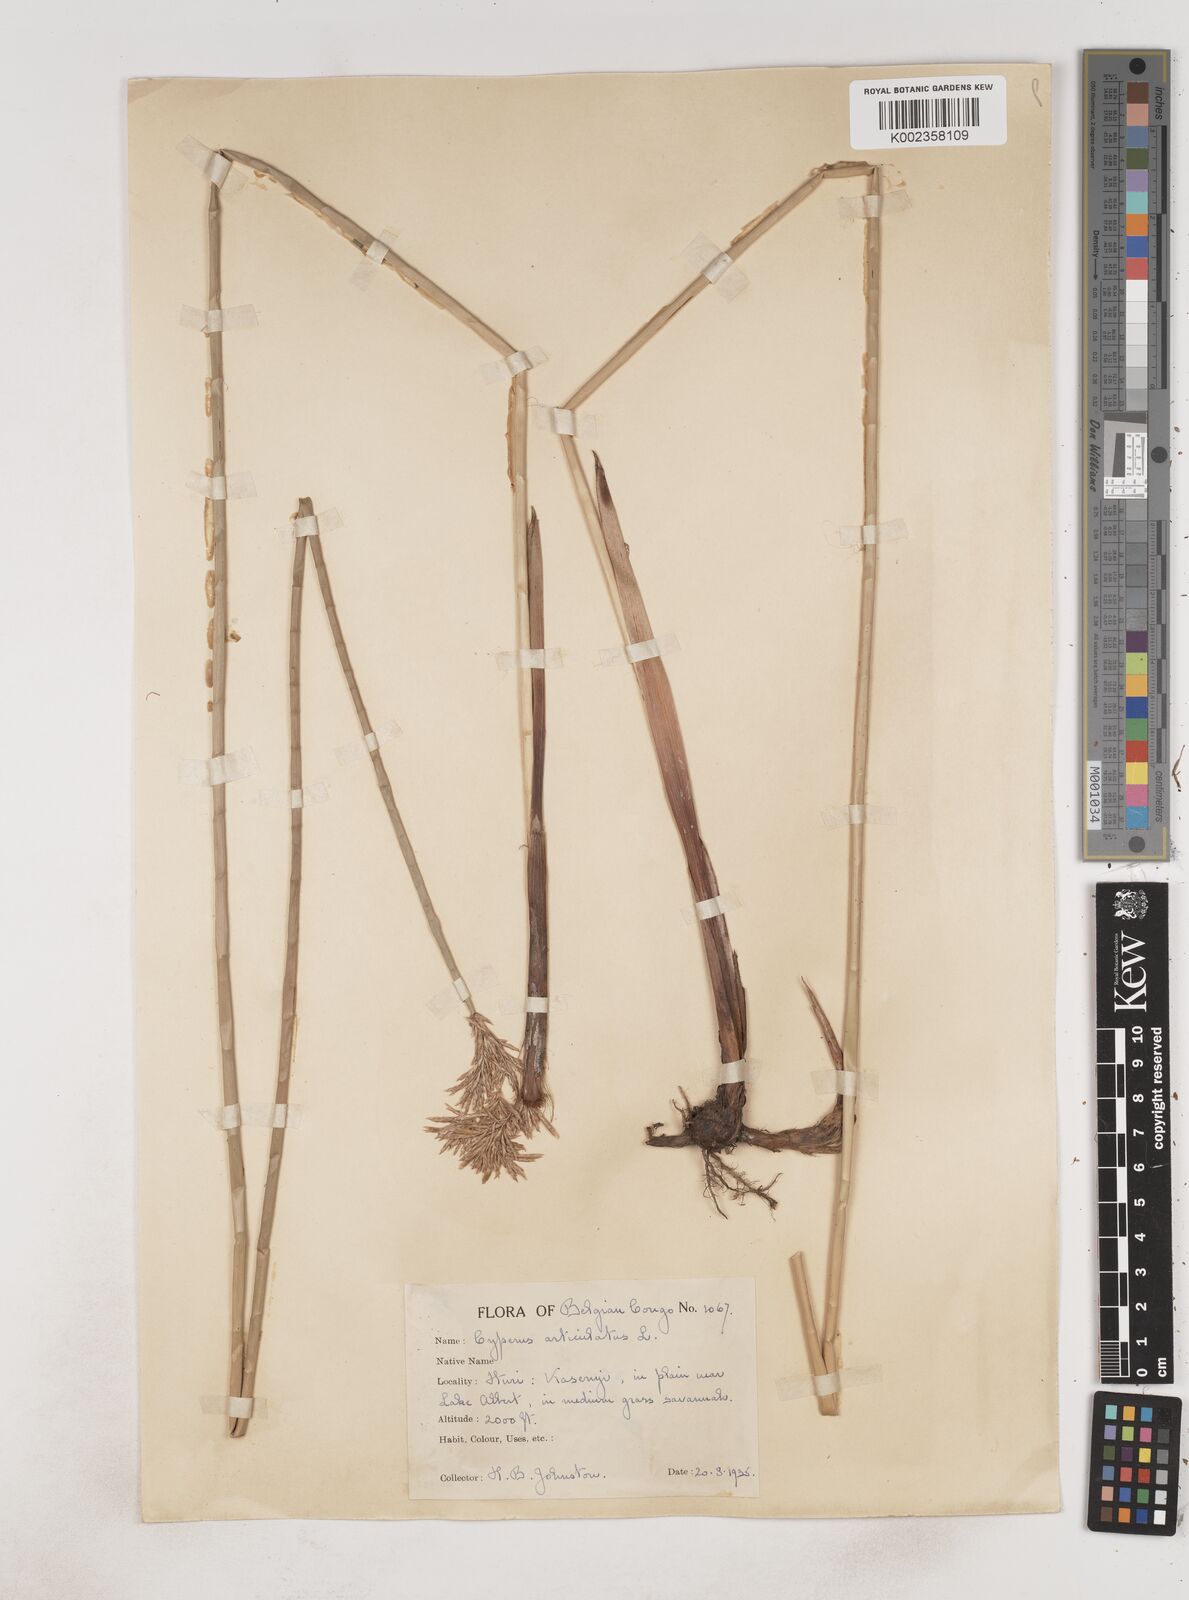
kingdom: Plantae
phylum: Tracheophyta
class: Liliopsida
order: Poales
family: Cyperaceae
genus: Cyperus
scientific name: Cyperus articulatus
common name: Jointed flatsedge
